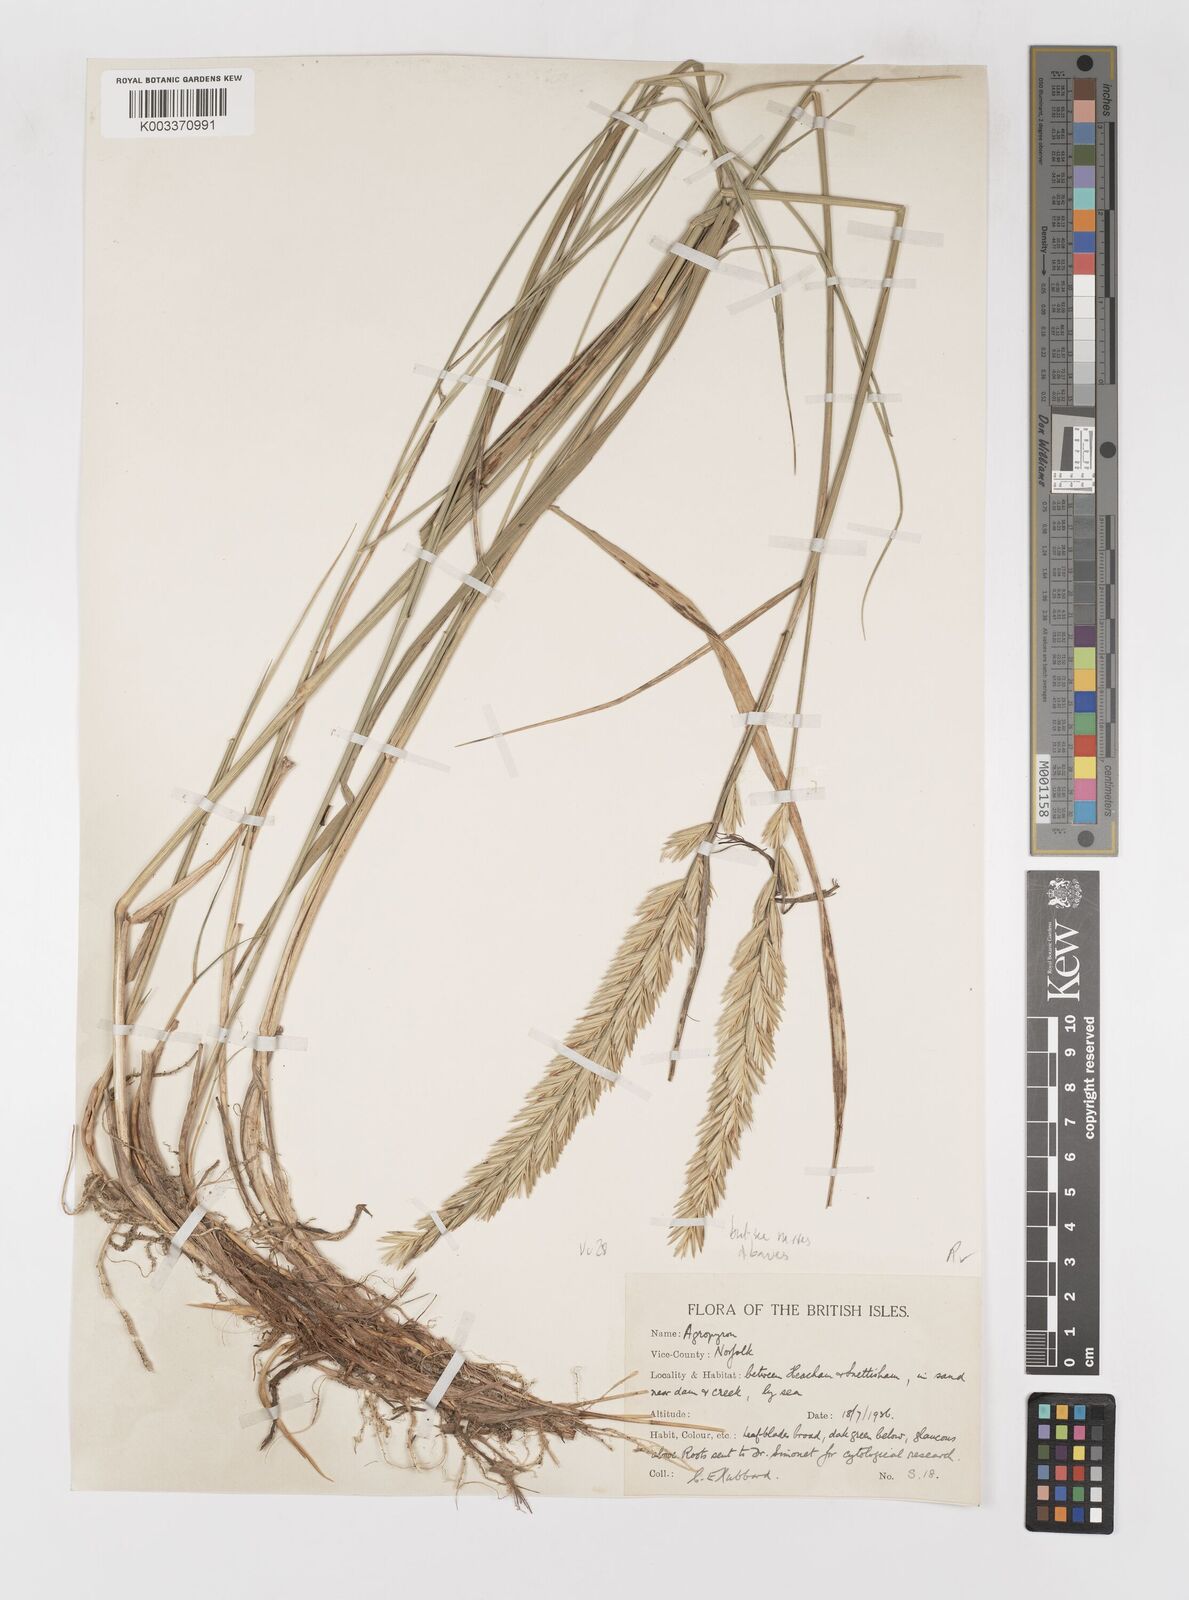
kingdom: Plantae
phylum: Tracheophyta
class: Liliopsida
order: Poales
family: Poaceae
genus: Elymus
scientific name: Elymus repens
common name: Quackgrass
